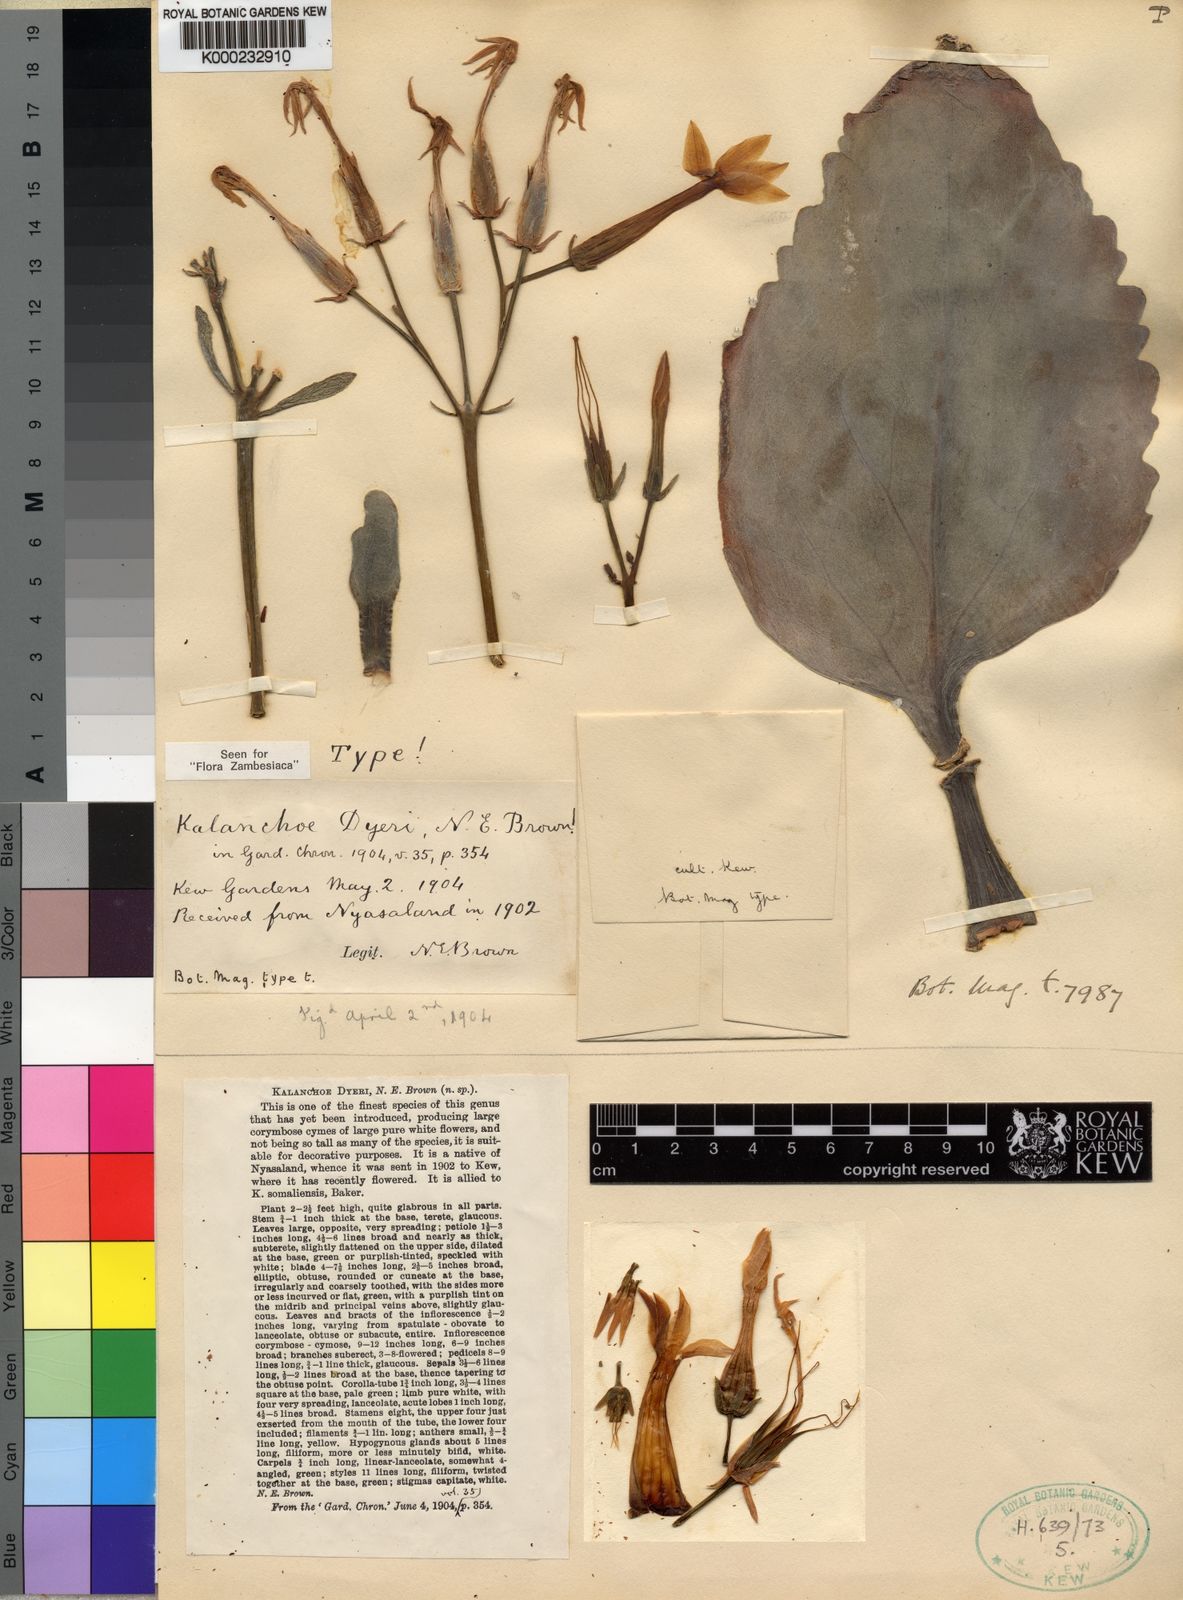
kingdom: Plantae
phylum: Tracheophyta
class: Magnoliopsida
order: Saxifragales
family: Crassulaceae
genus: Kalanchoe
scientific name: Kalanchoe dyeri
